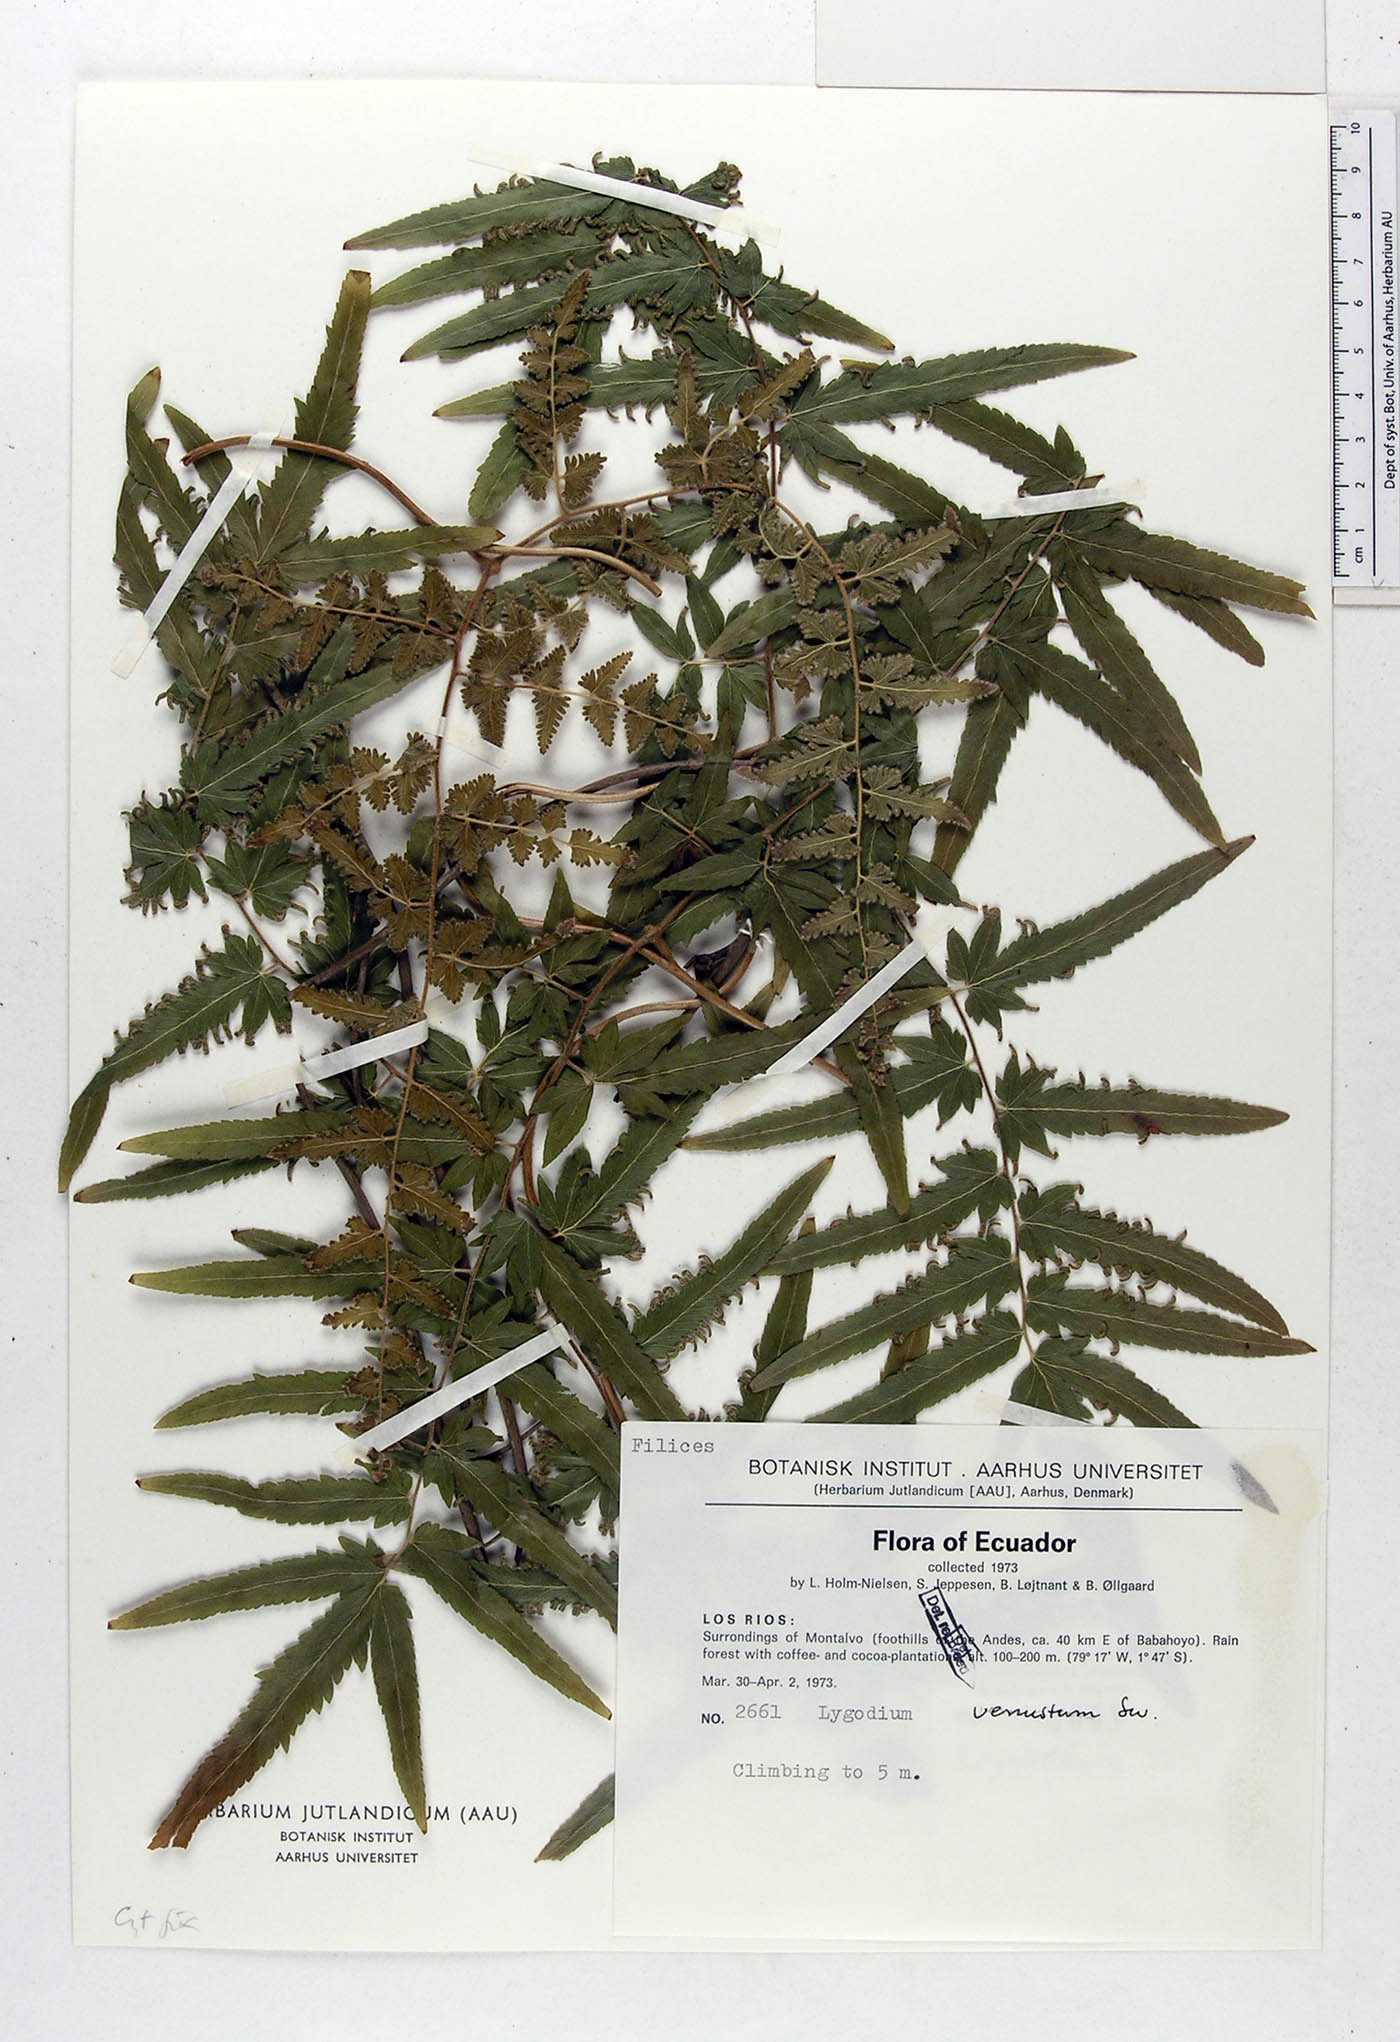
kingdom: Plantae
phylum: Tracheophyta
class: Polypodiopsida
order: Schizaeales
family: Lygodiaceae
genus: Lygodium
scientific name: Lygodium venustum
